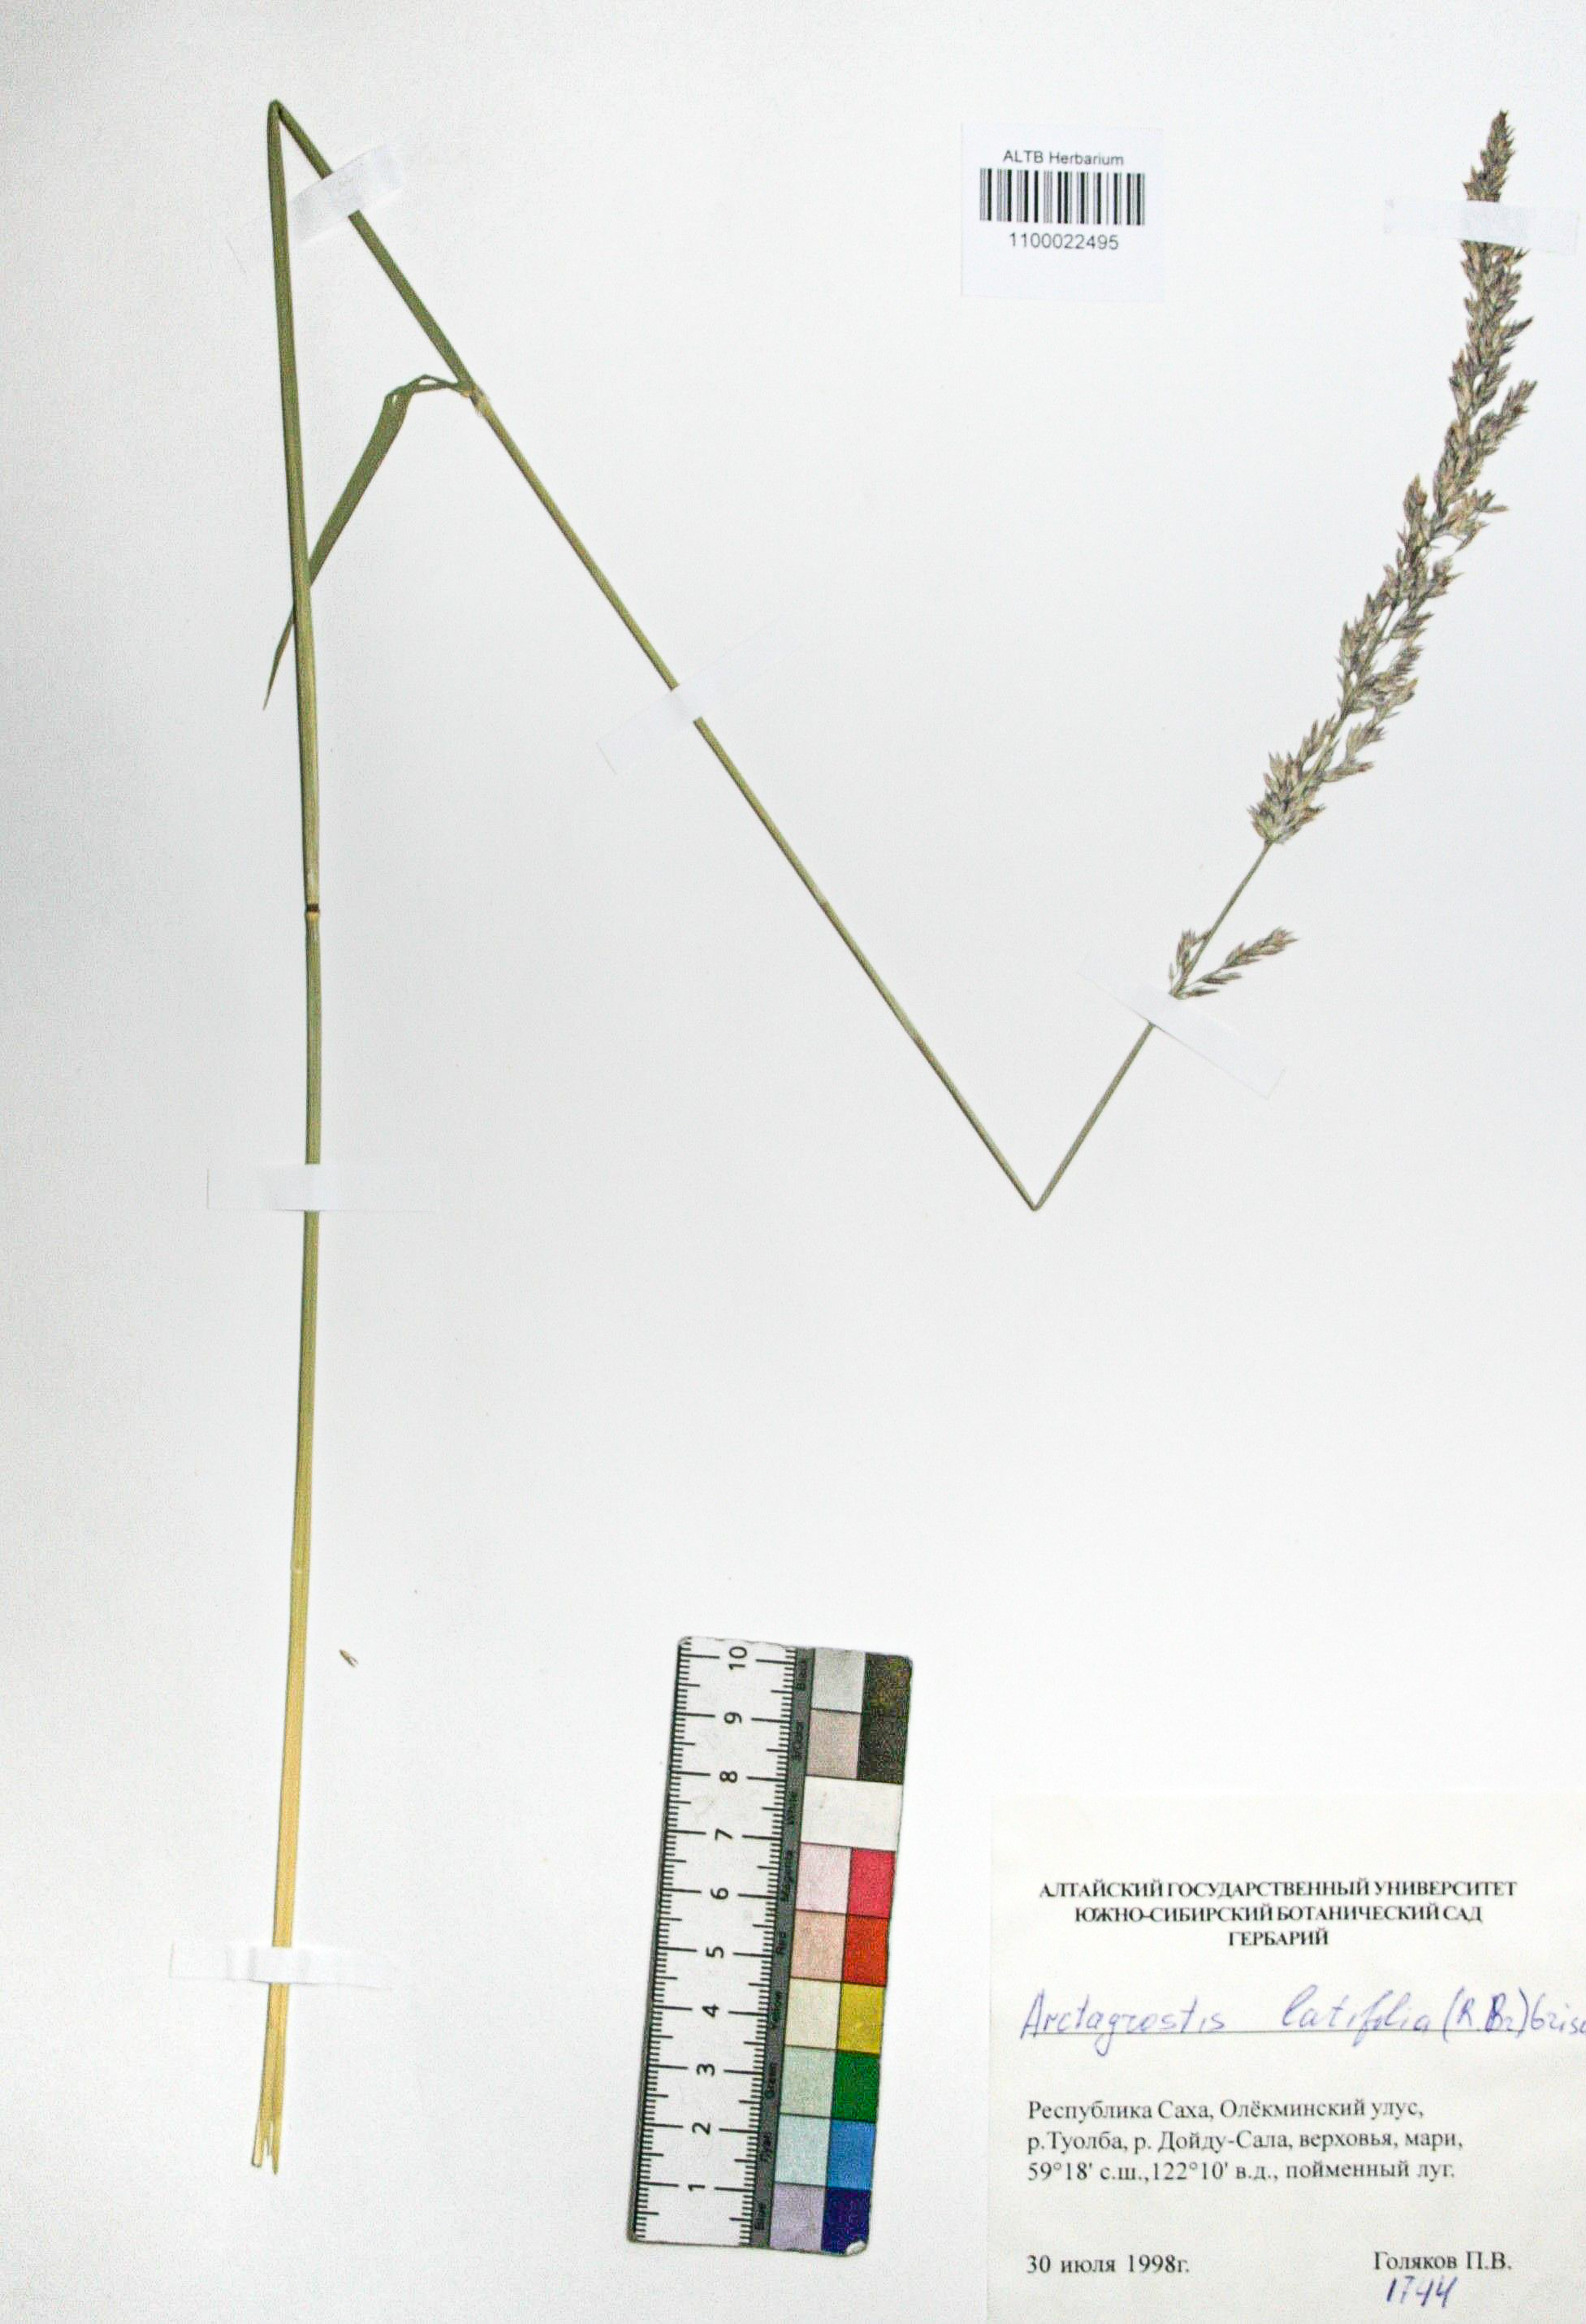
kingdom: Plantae
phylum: Tracheophyta
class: Liliopsida
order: Poales
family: Poaceae
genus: Arctagrostis
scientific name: Arctagrostis latifolia
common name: Arctic grass
